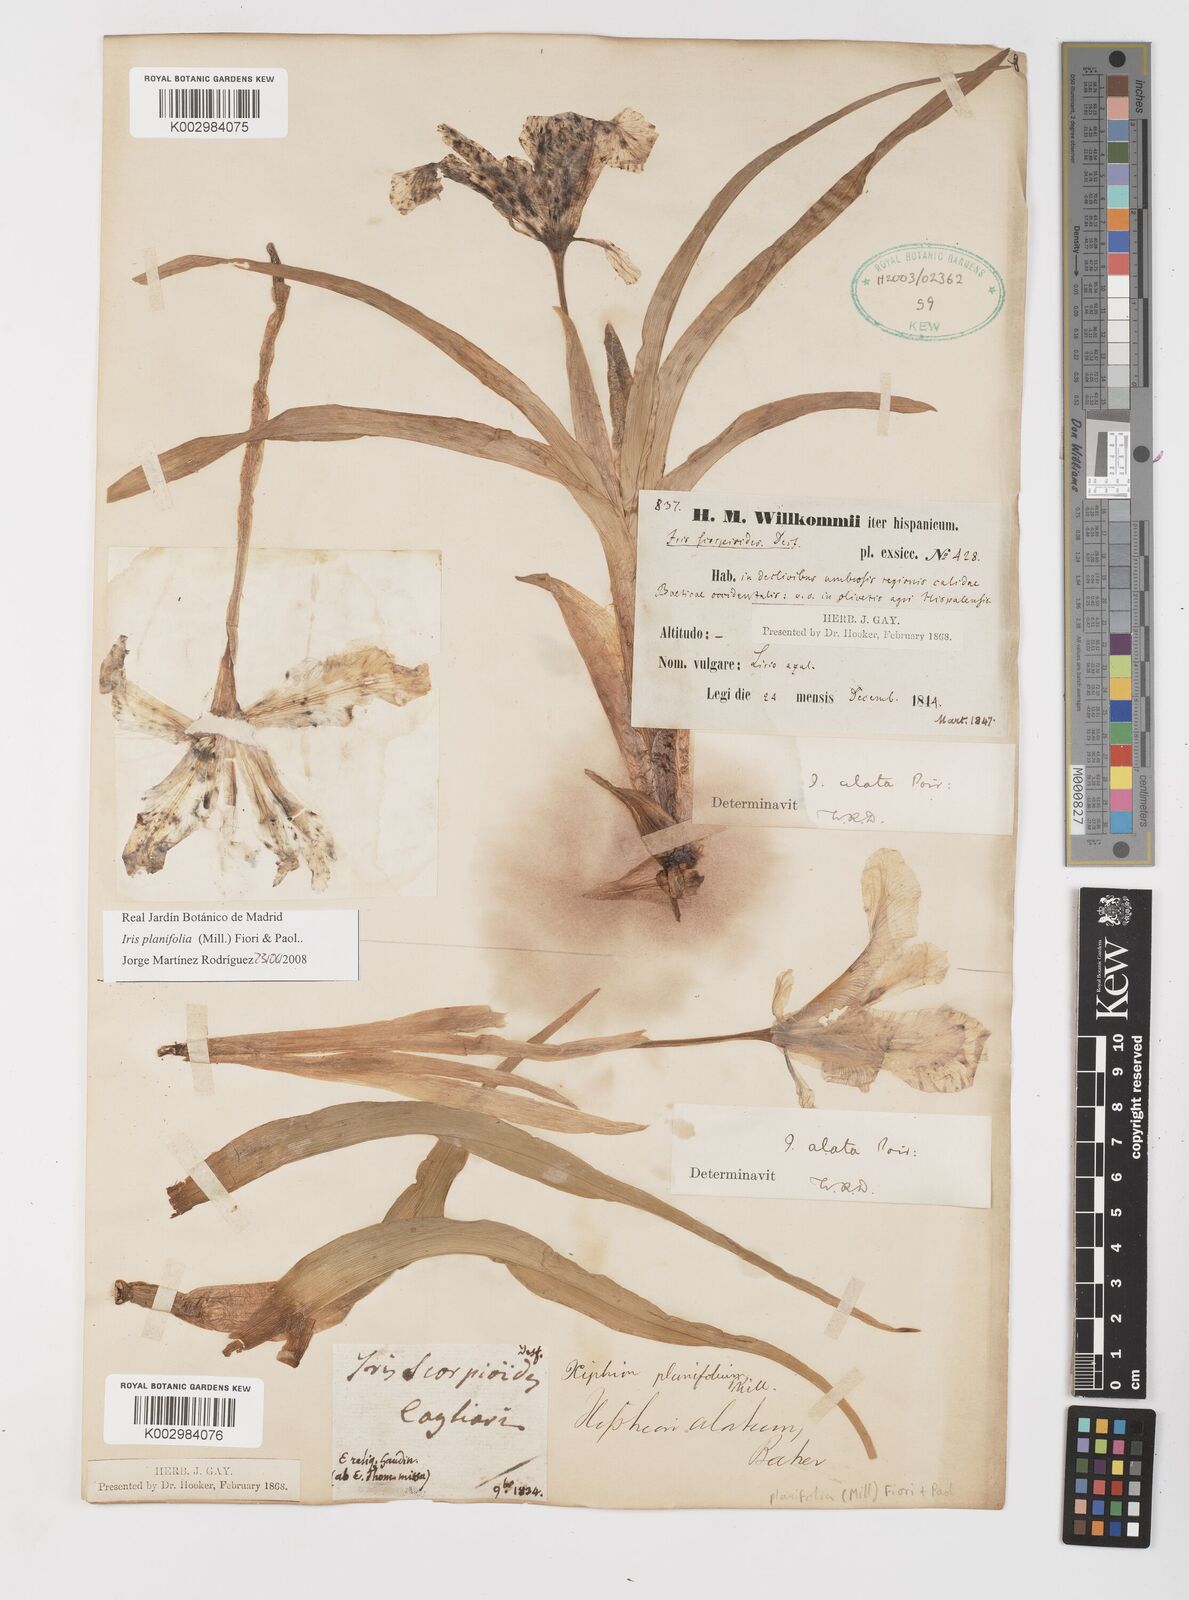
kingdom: Plantae
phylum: Tracheophyta
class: Liliopsida
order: Asparagales
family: Iridaceae
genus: Iris
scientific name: Iris planifolia
